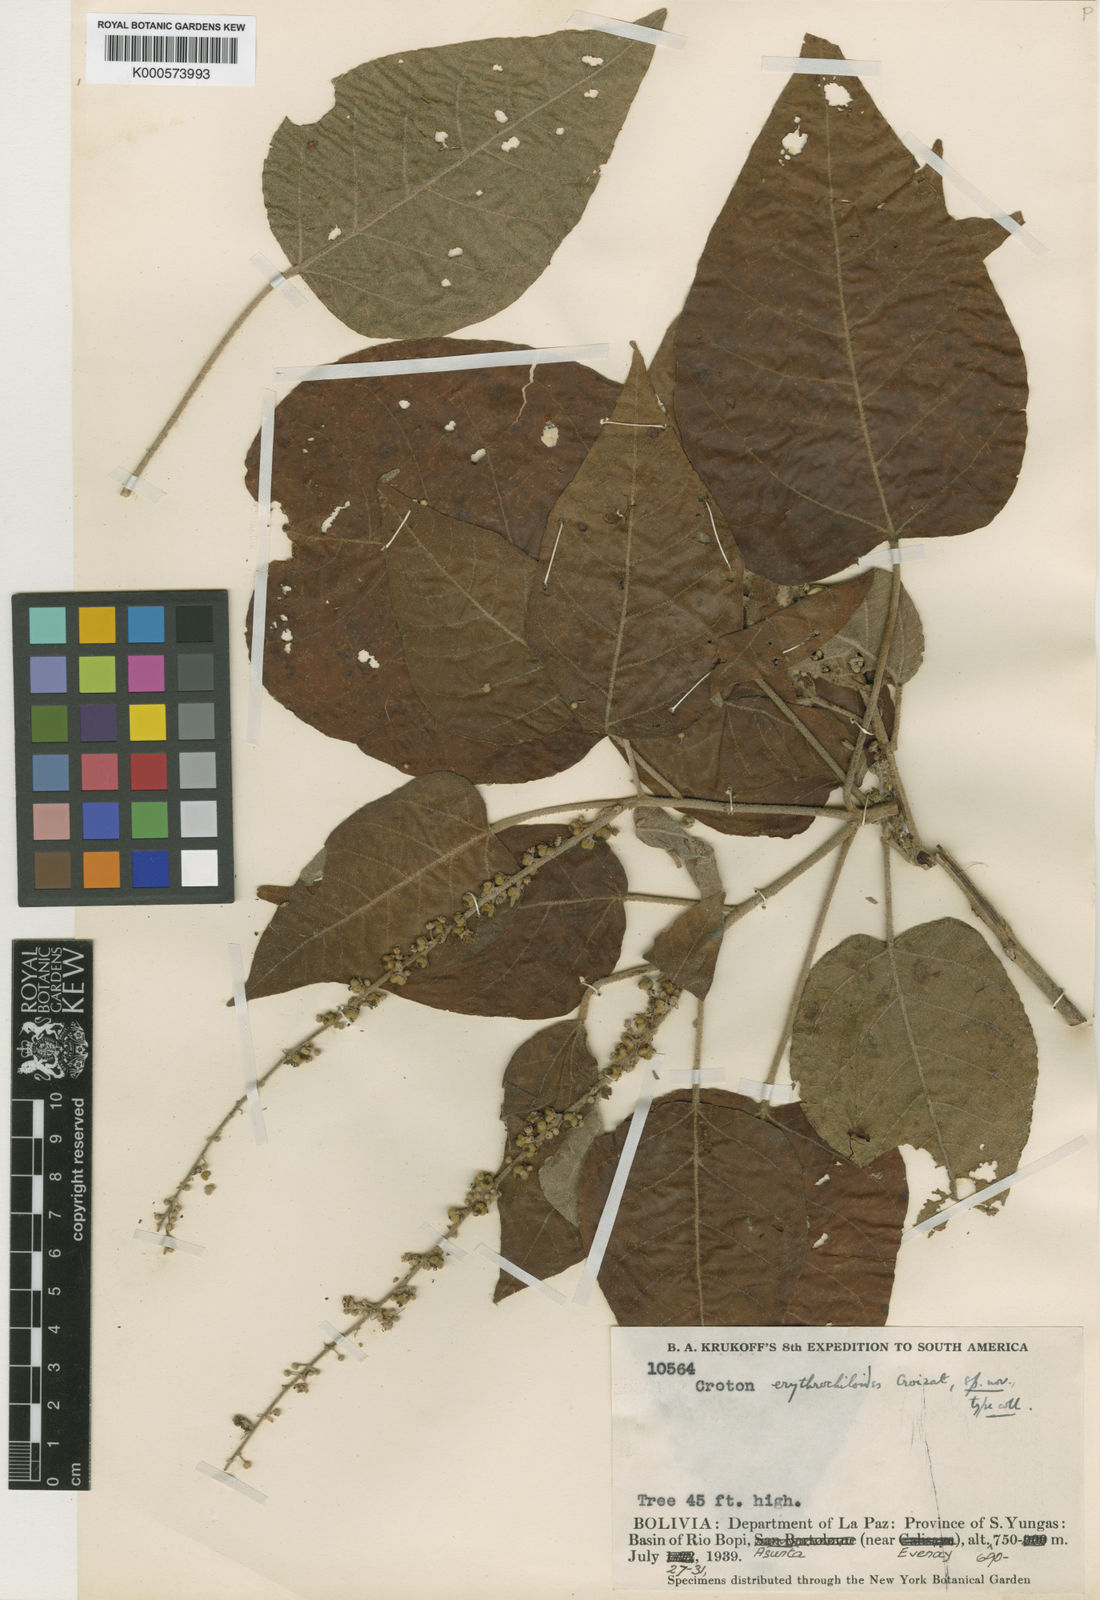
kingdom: Plantae
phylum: Tracheophyta
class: Magnoliopsida
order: Malpighiales
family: Euphorbiaceae
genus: Croton
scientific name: Croton erythrochyloides
